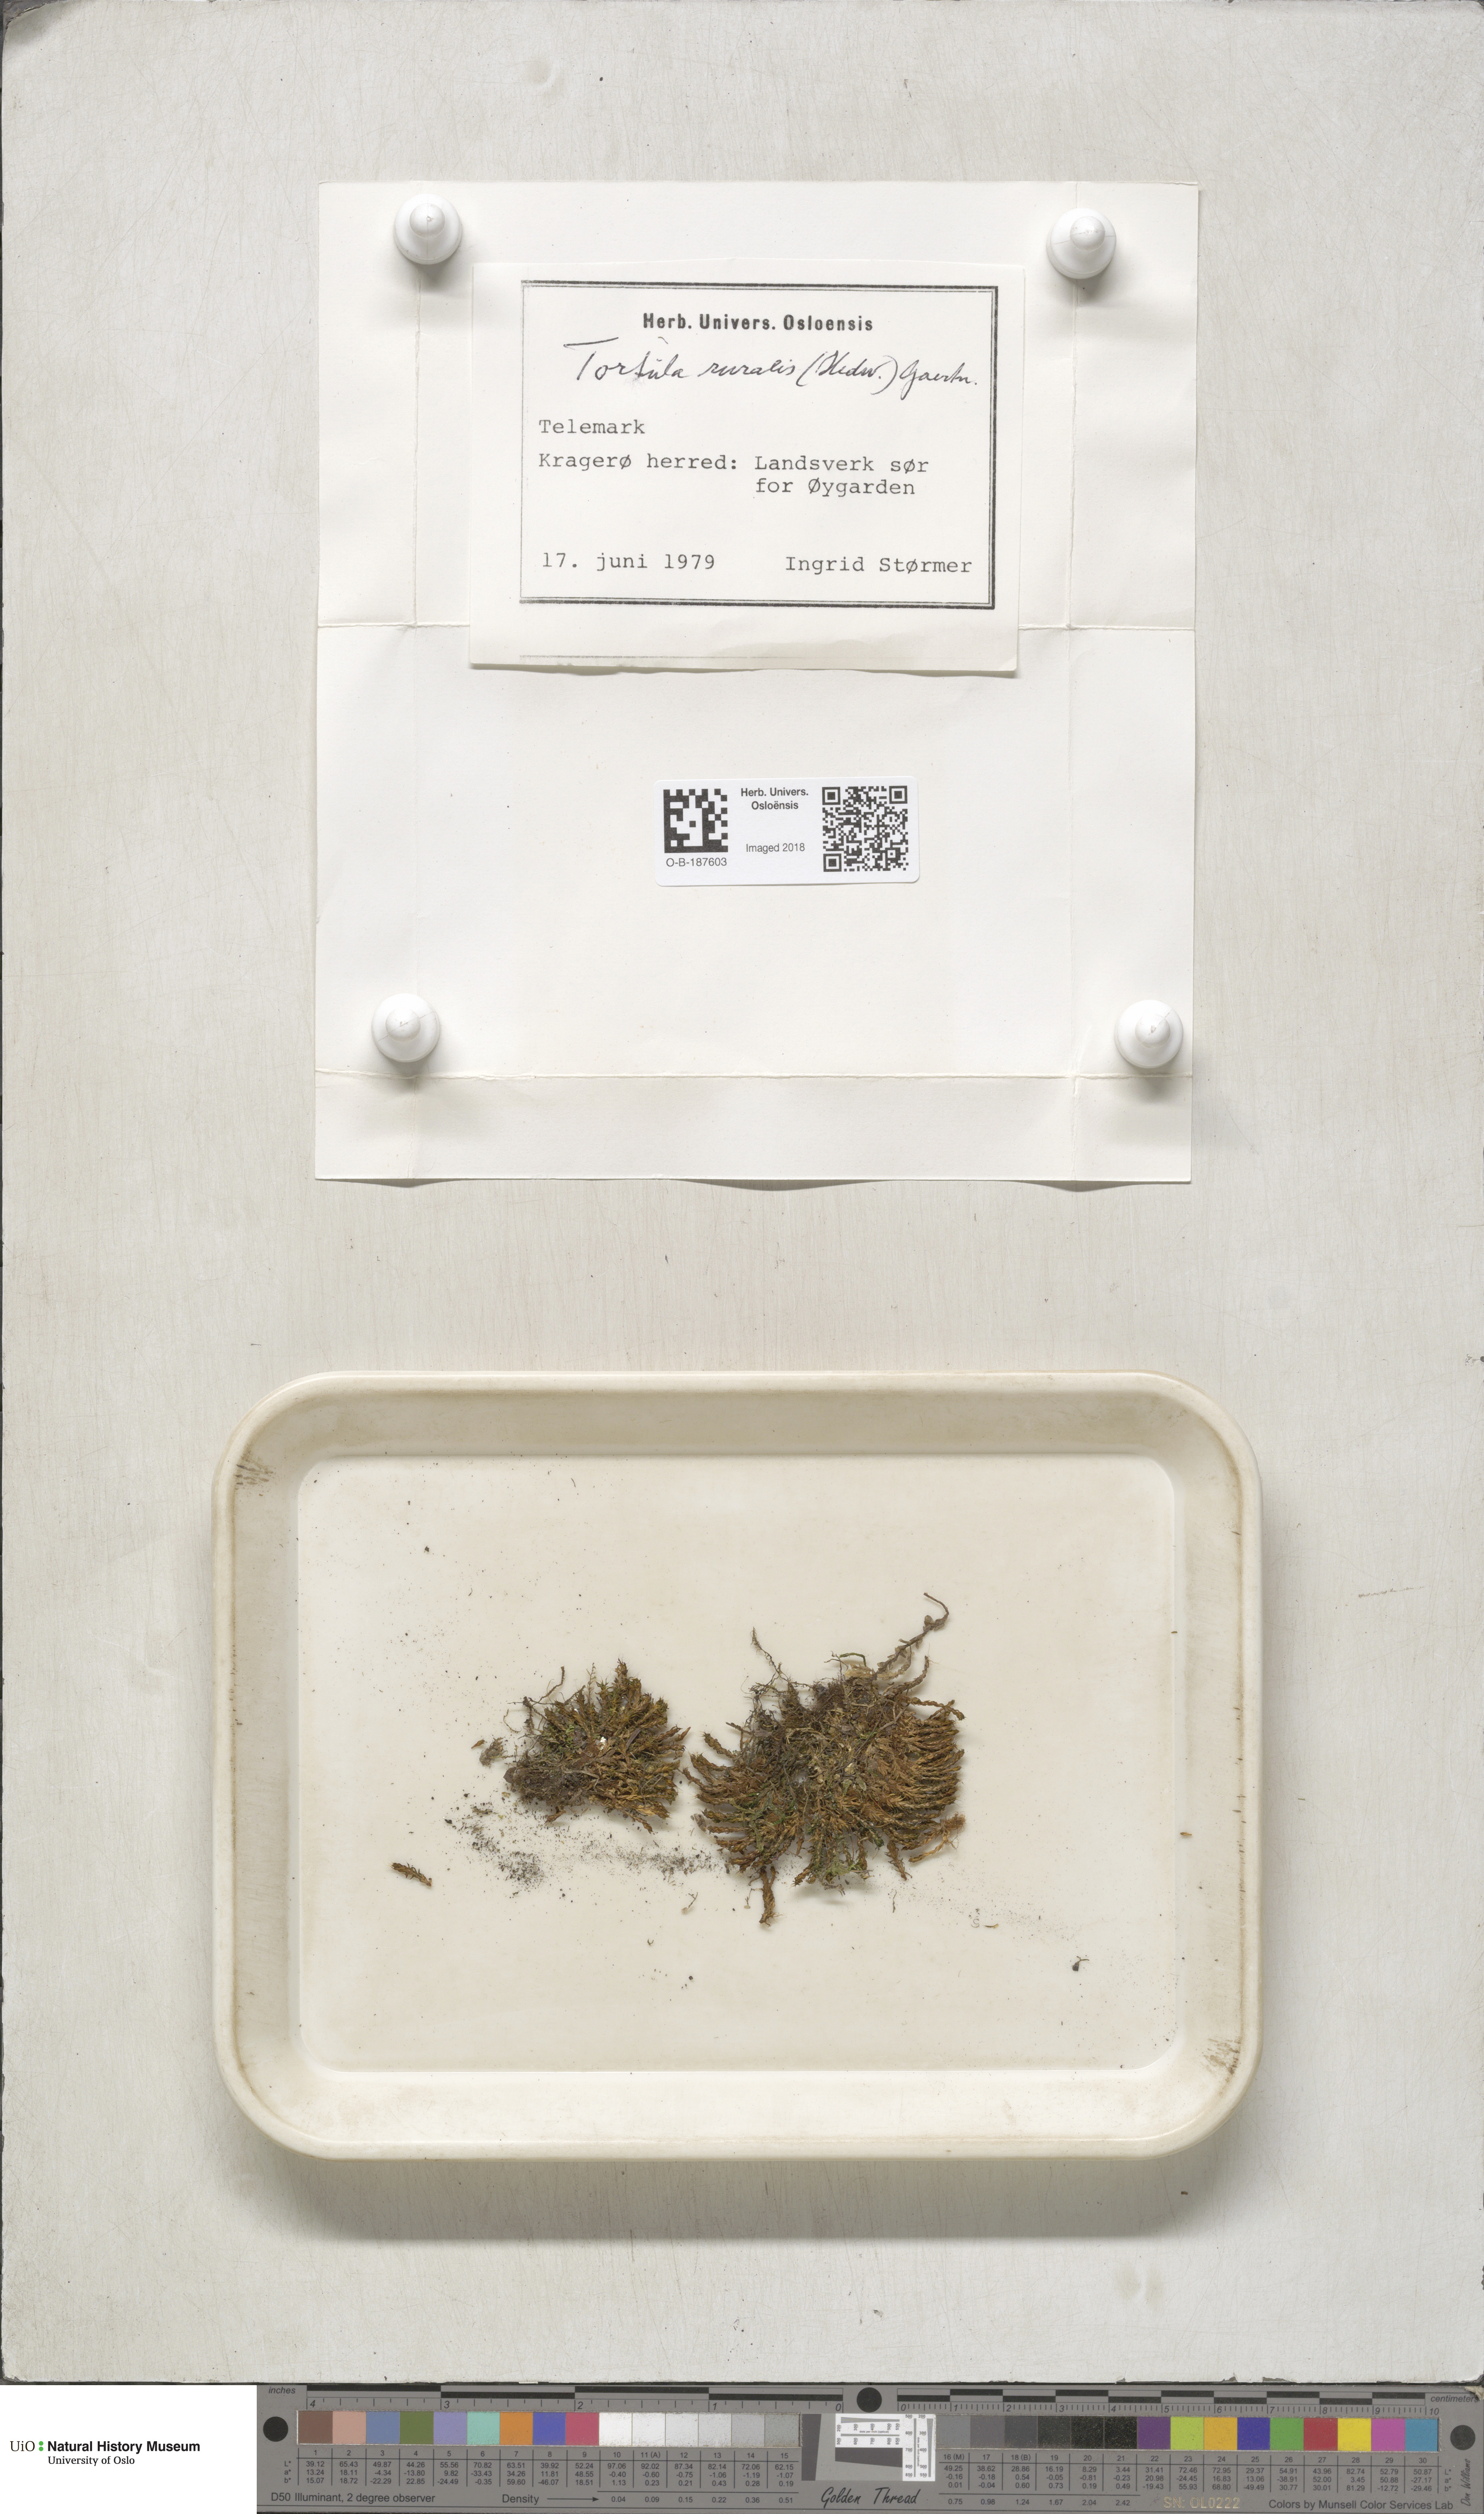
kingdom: Plantae
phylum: Bryophyta
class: Bryopsida
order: Pottiales
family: Pottiaceae
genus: Syntrichia
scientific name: Syntrichia ruralis
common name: Sidewalk screw moss
